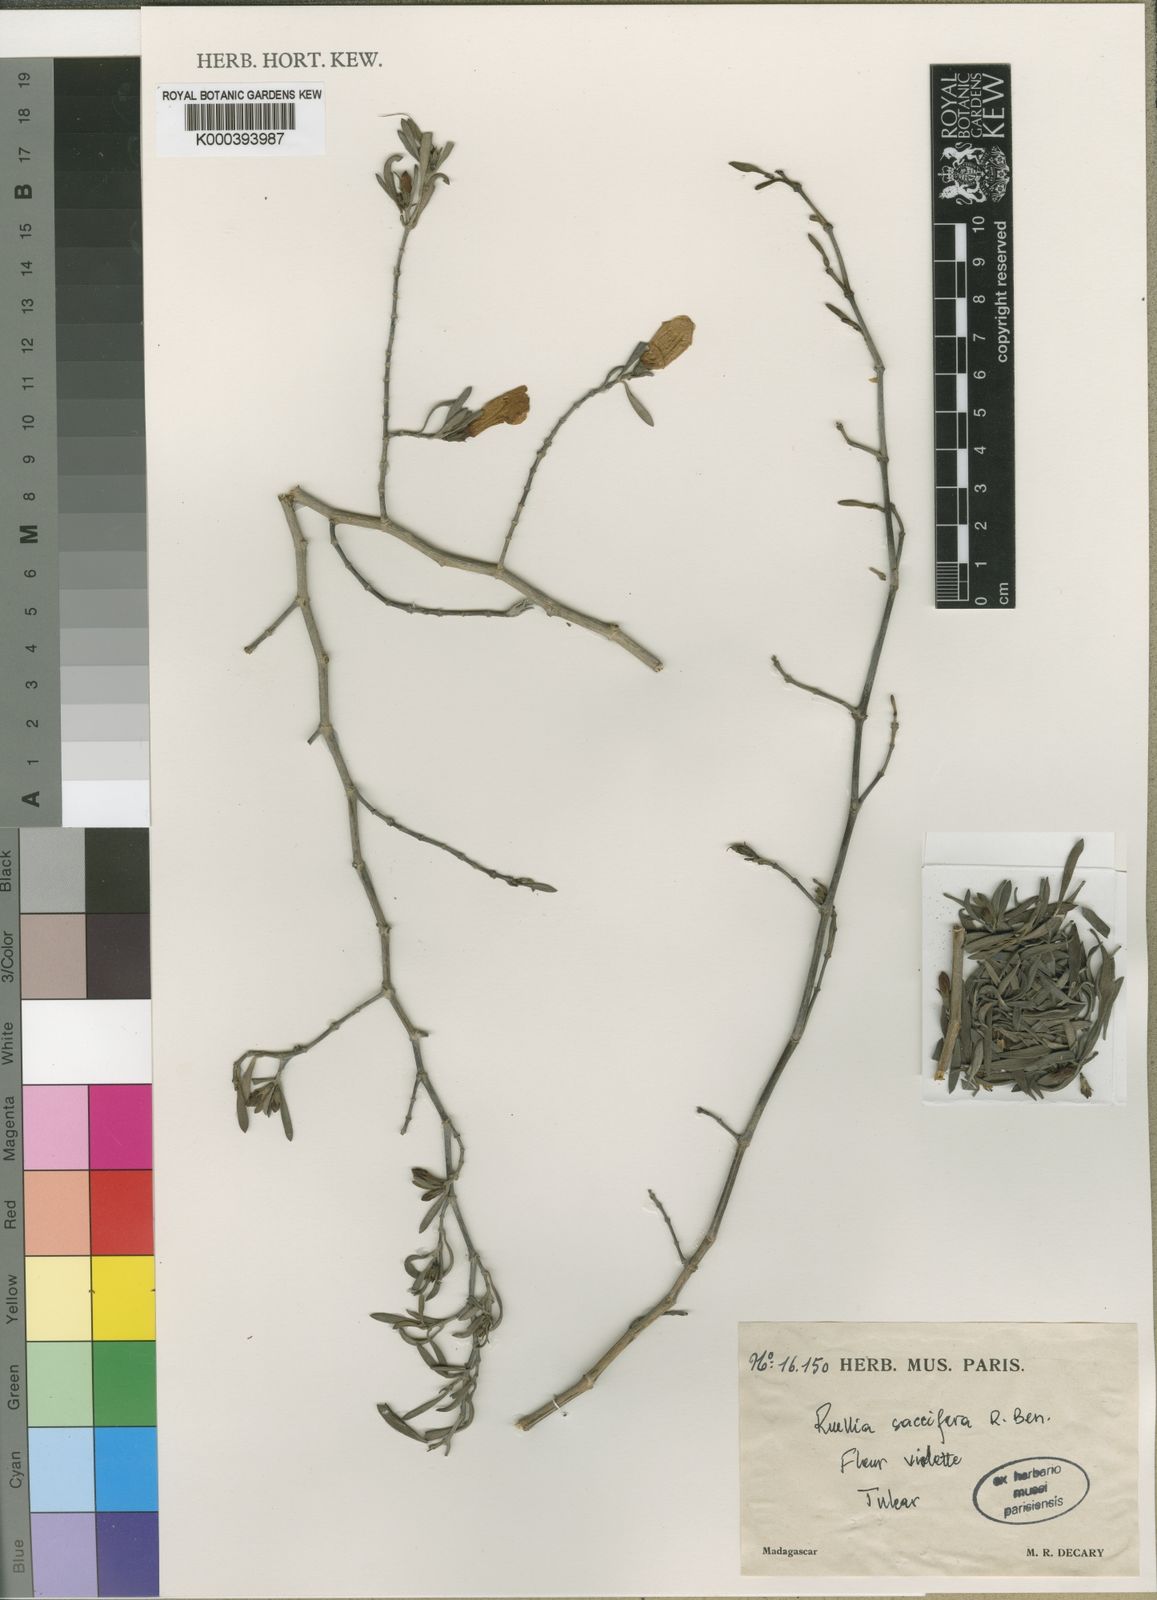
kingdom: Plantae
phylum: Tracheophyta
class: Magnoliopsida
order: Lamiales
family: Acanthaceae
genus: Ruellia
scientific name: Ruellia saccifera
